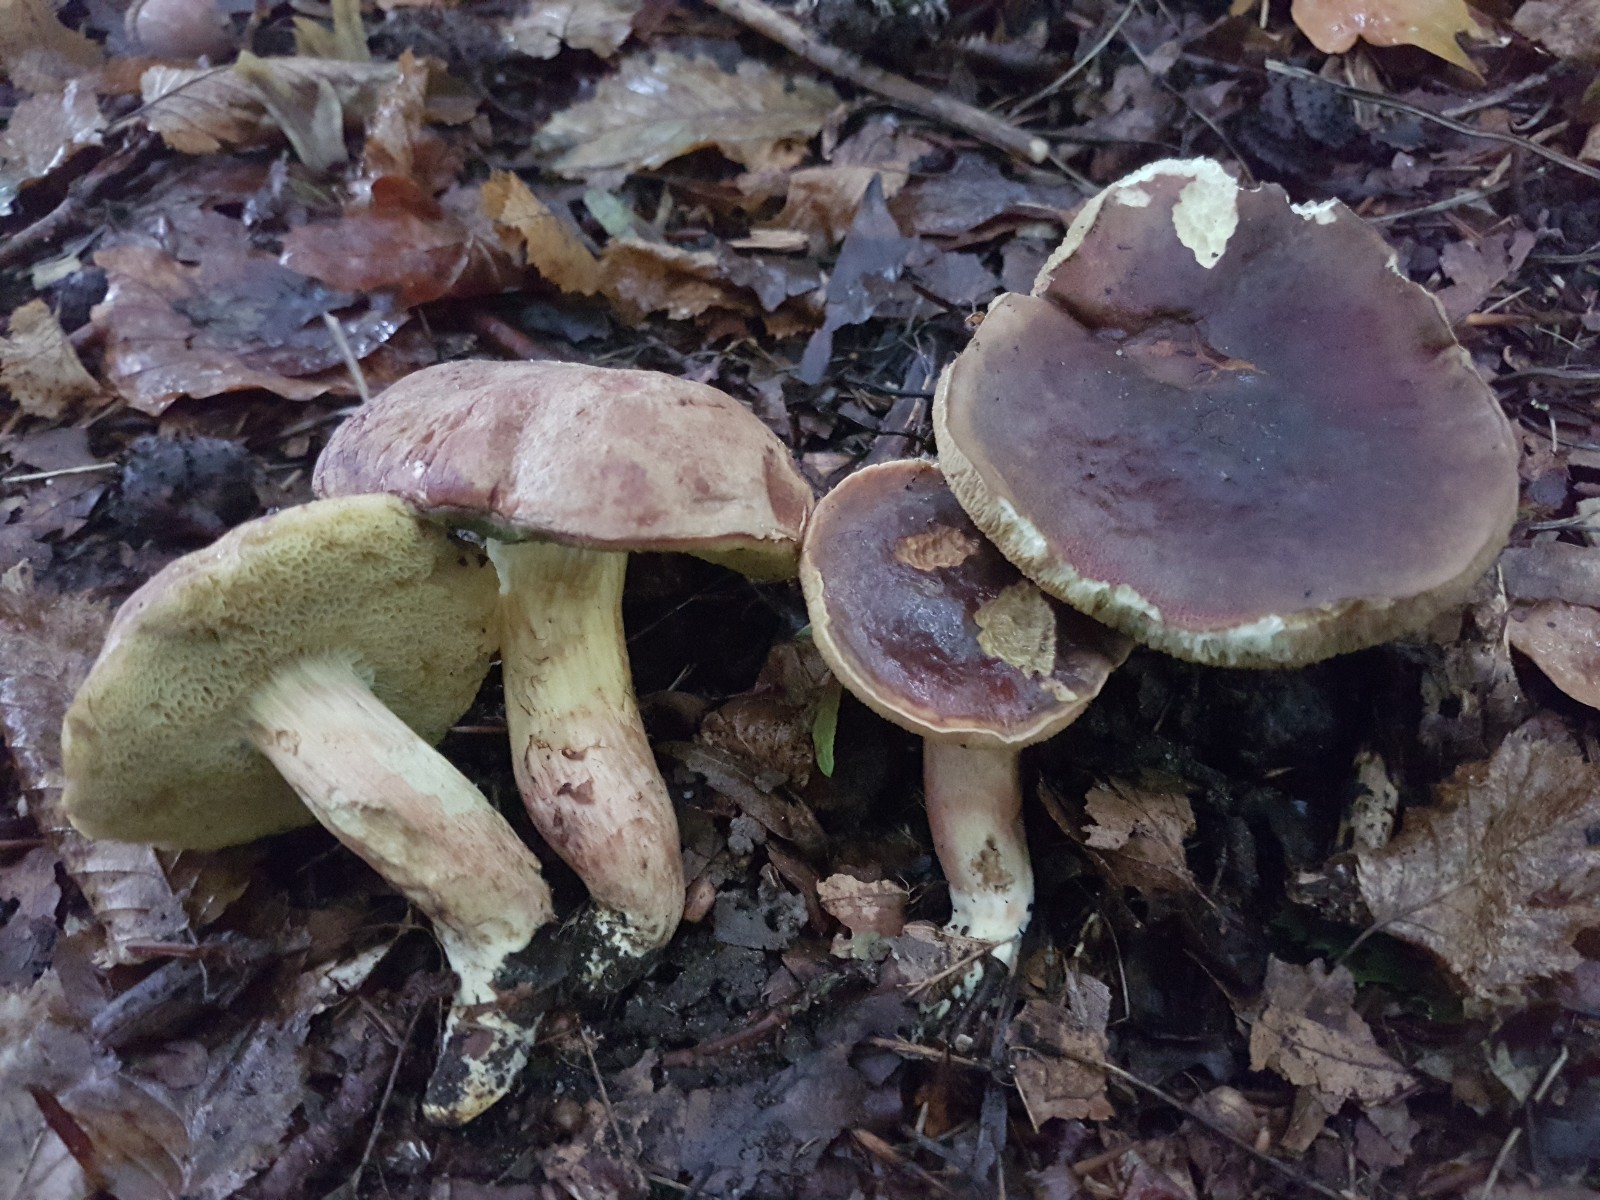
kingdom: Fungi
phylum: Basidiomycota
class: Agaricomycetes
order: Boletales
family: Boletaceae
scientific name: Boletaceae
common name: rørhatfamilien
